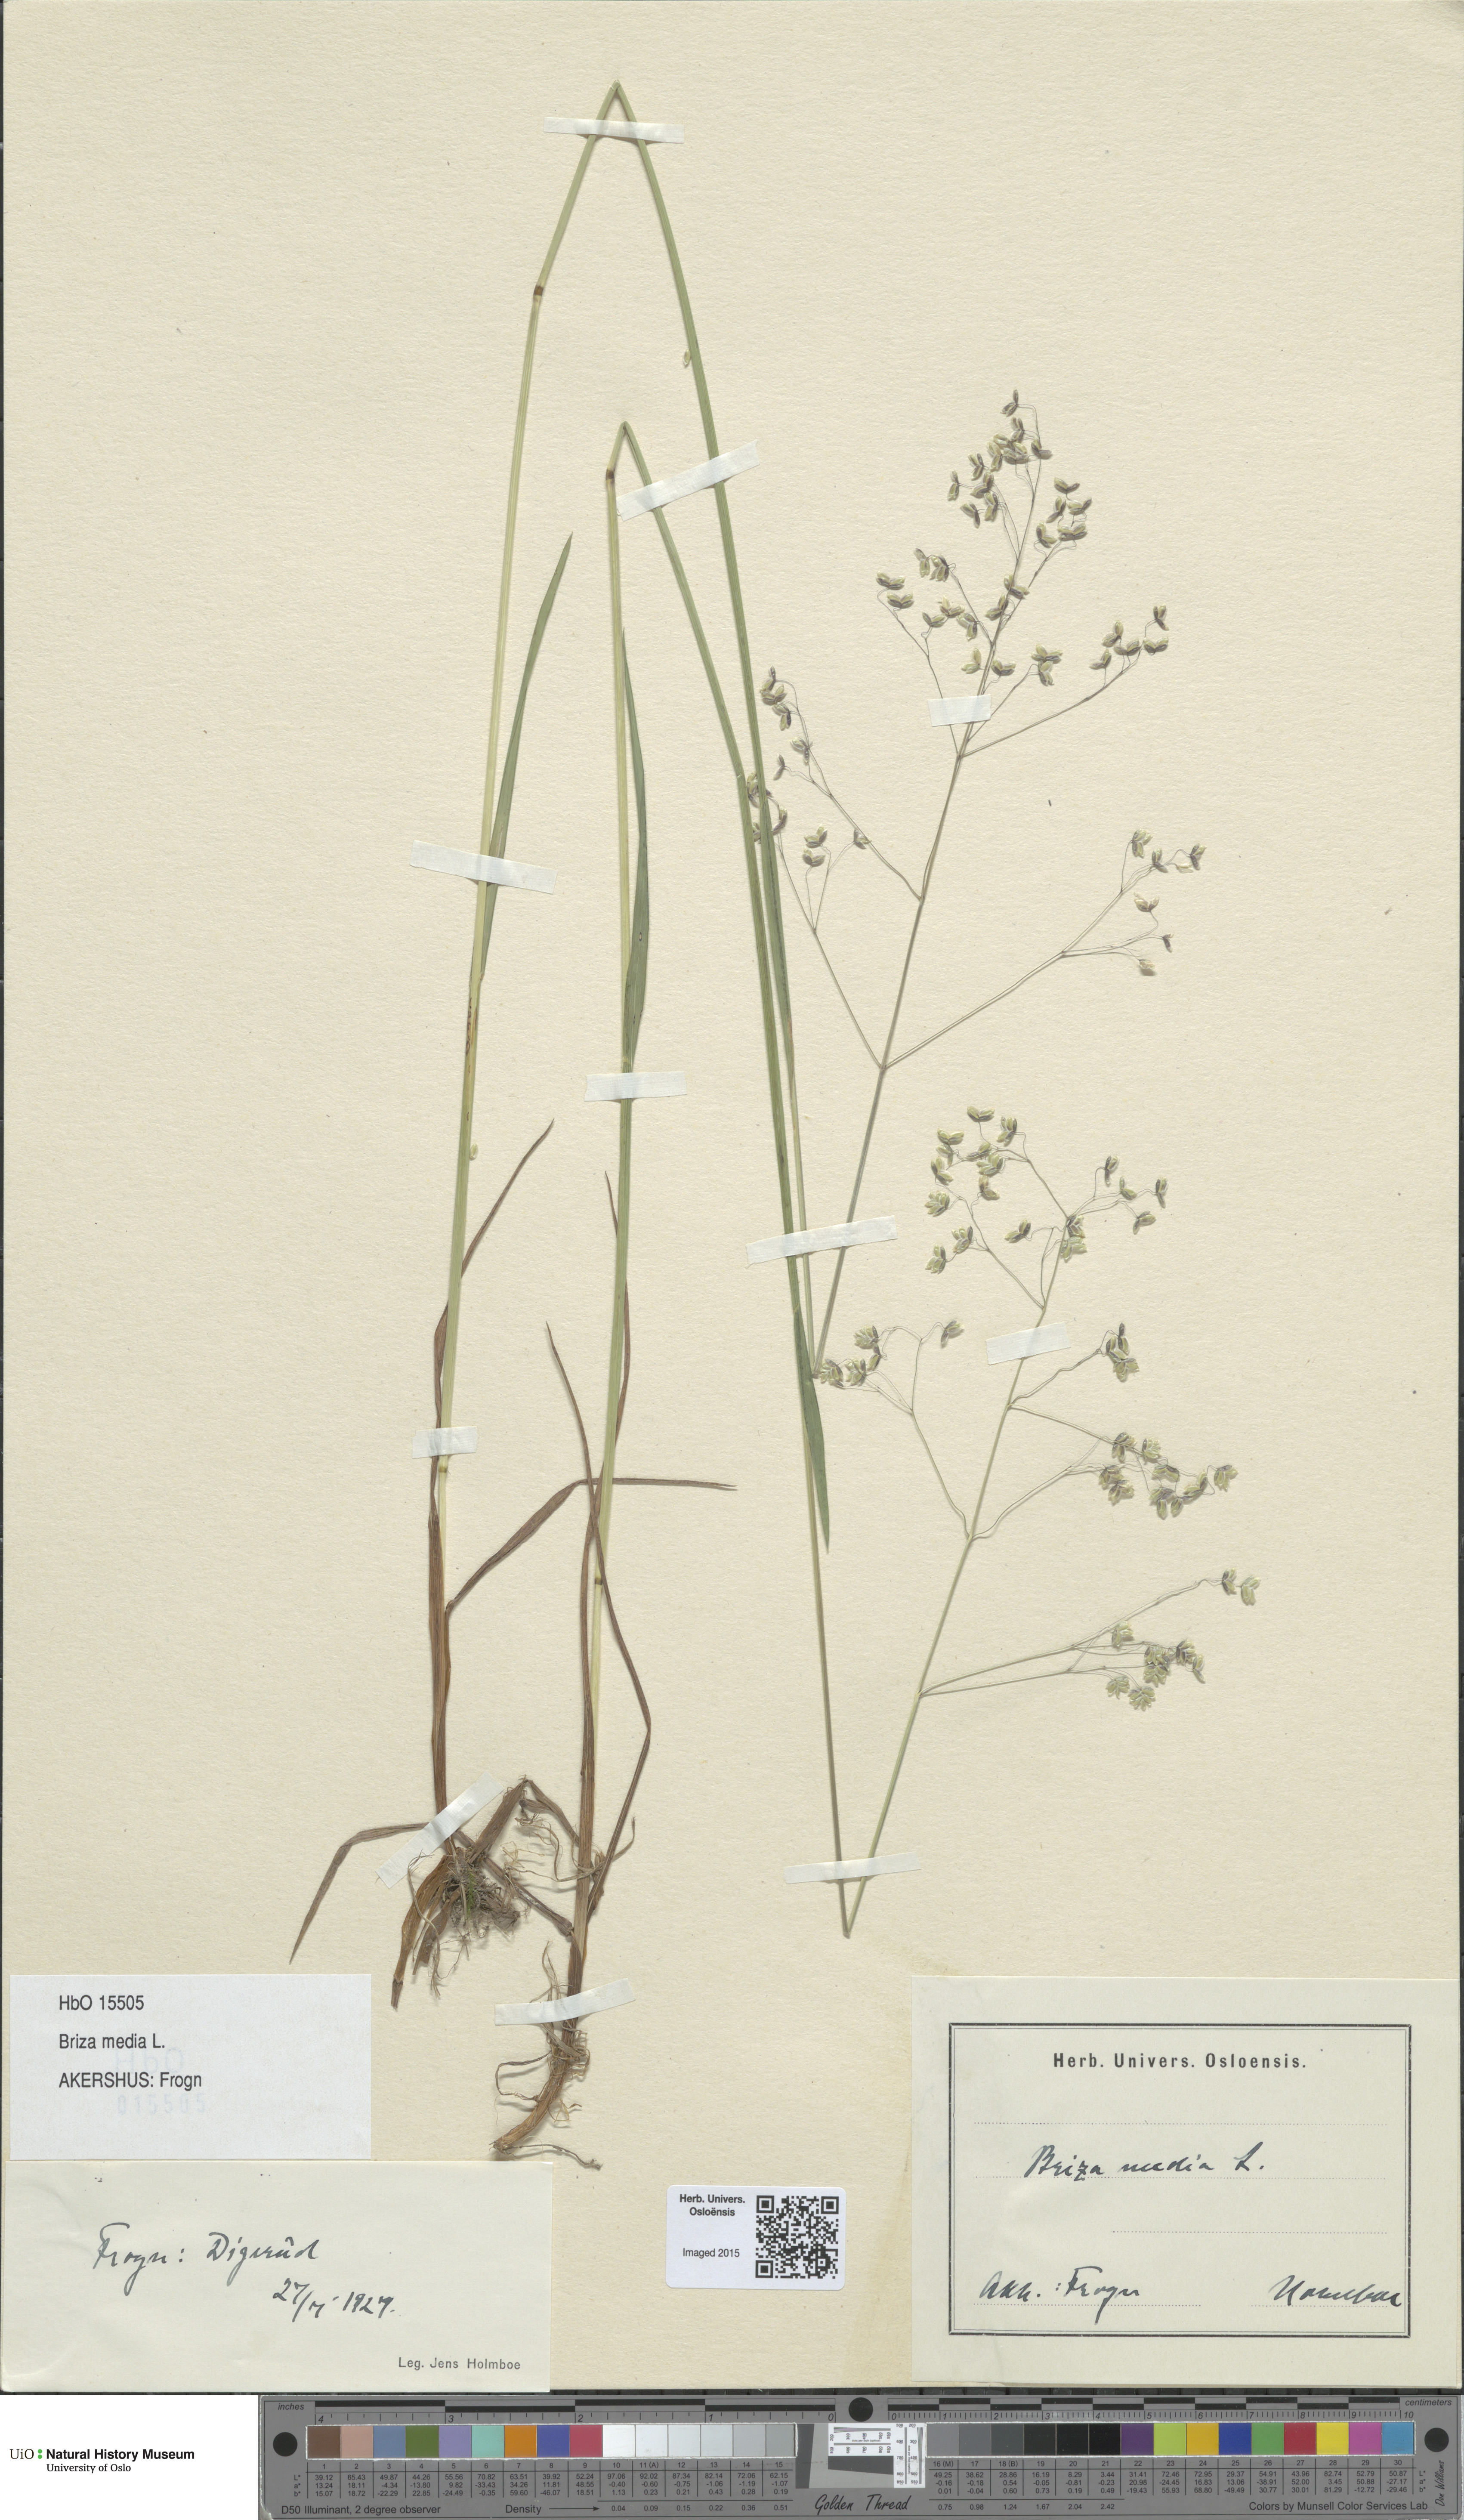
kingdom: Plantae
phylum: Tracheophyta
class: Liliopsida
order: Poales
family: Poaceae
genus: Briza
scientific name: Briza media
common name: Quaking grass
